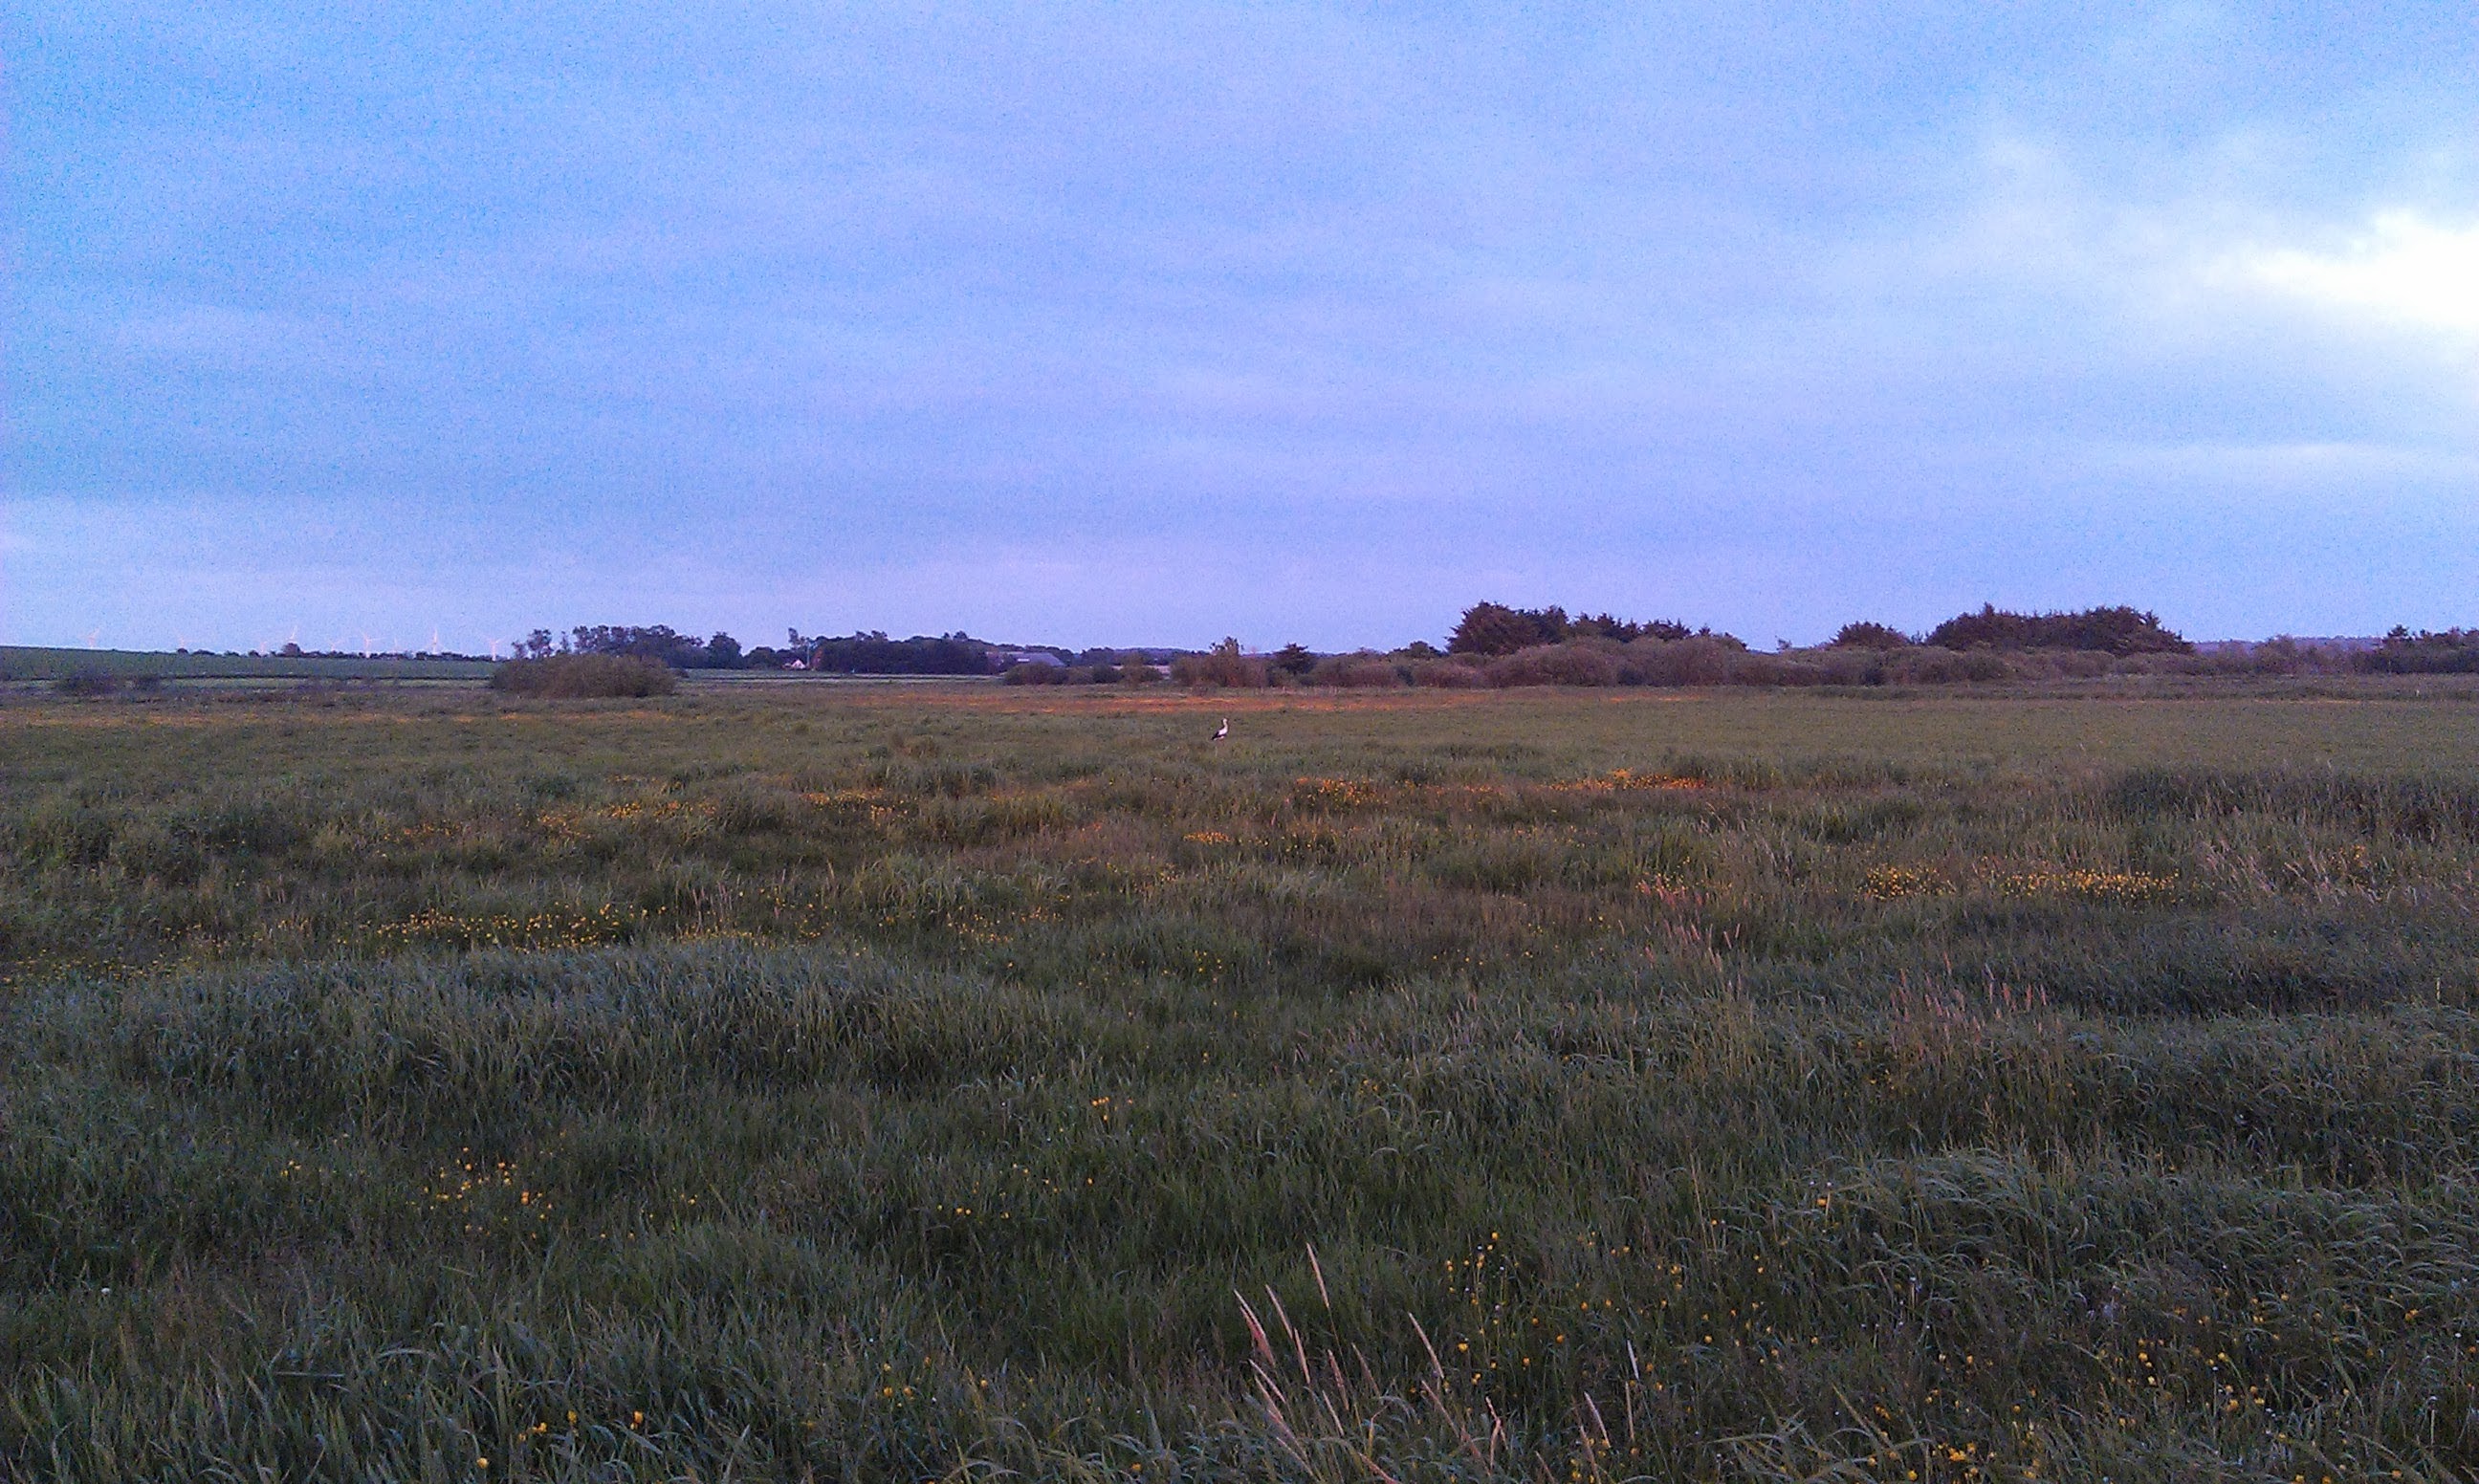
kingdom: Animalia
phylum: Chordata
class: Aves
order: Ciconiiformes
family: Ciconiidae
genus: Ciconia
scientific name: Ciconia ciconia
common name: Hvid stork
